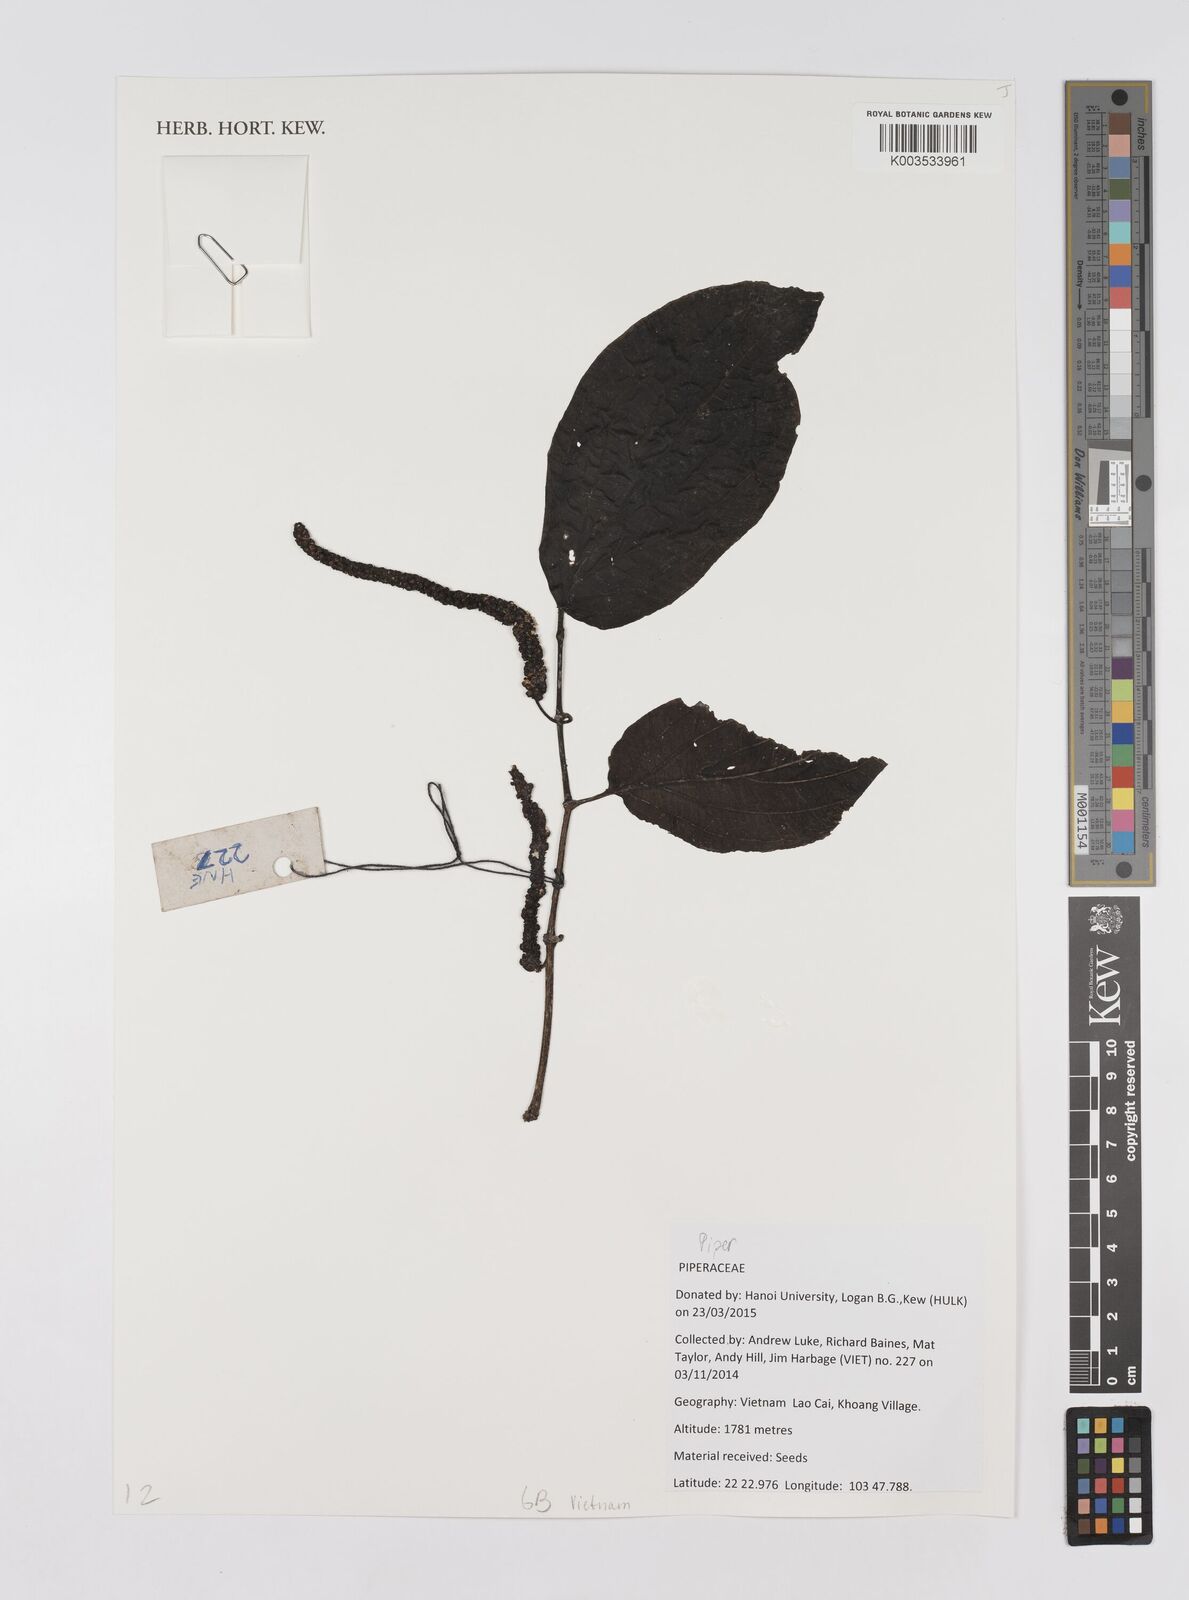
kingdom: Plantae
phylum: Tracheophyta
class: Magnoliopsida
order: Piperales
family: Piperaceae
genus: Piper
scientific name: Piper
